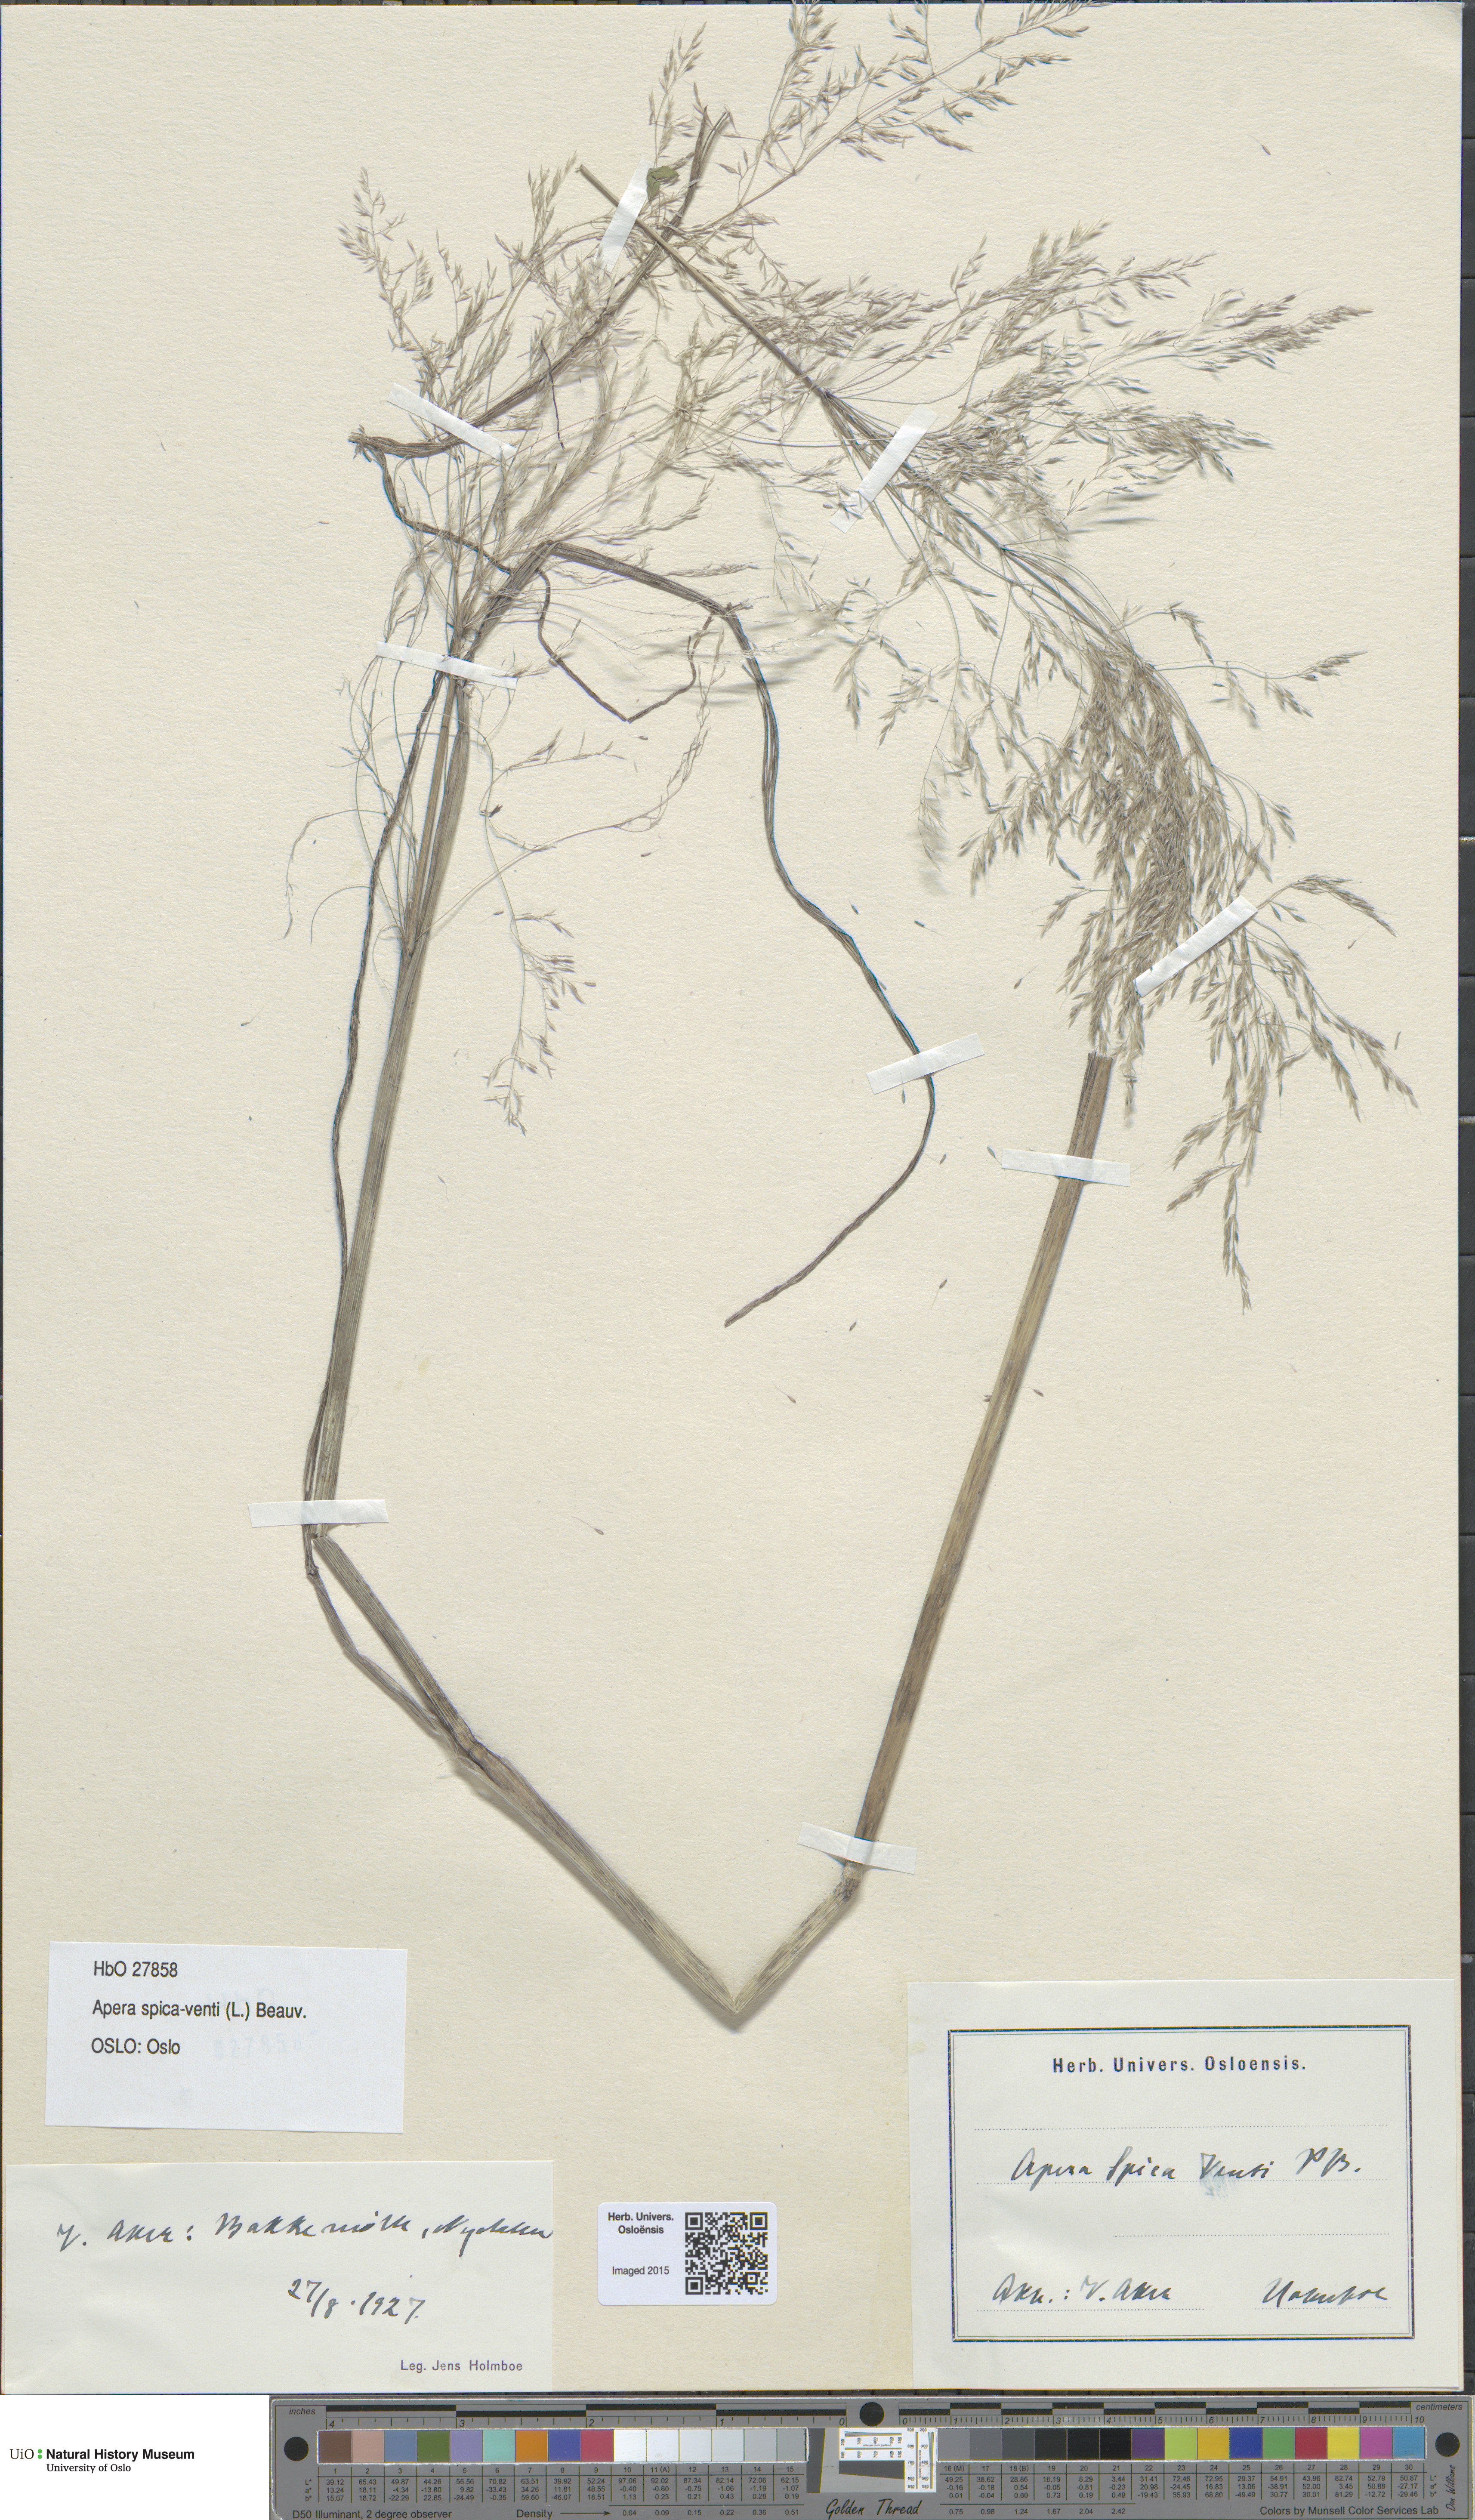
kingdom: Plantae
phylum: Tracheophyta
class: Liliopsida
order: Poales
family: Poaceae
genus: Apera
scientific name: Apera spica-venti
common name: Loose silky-bent
